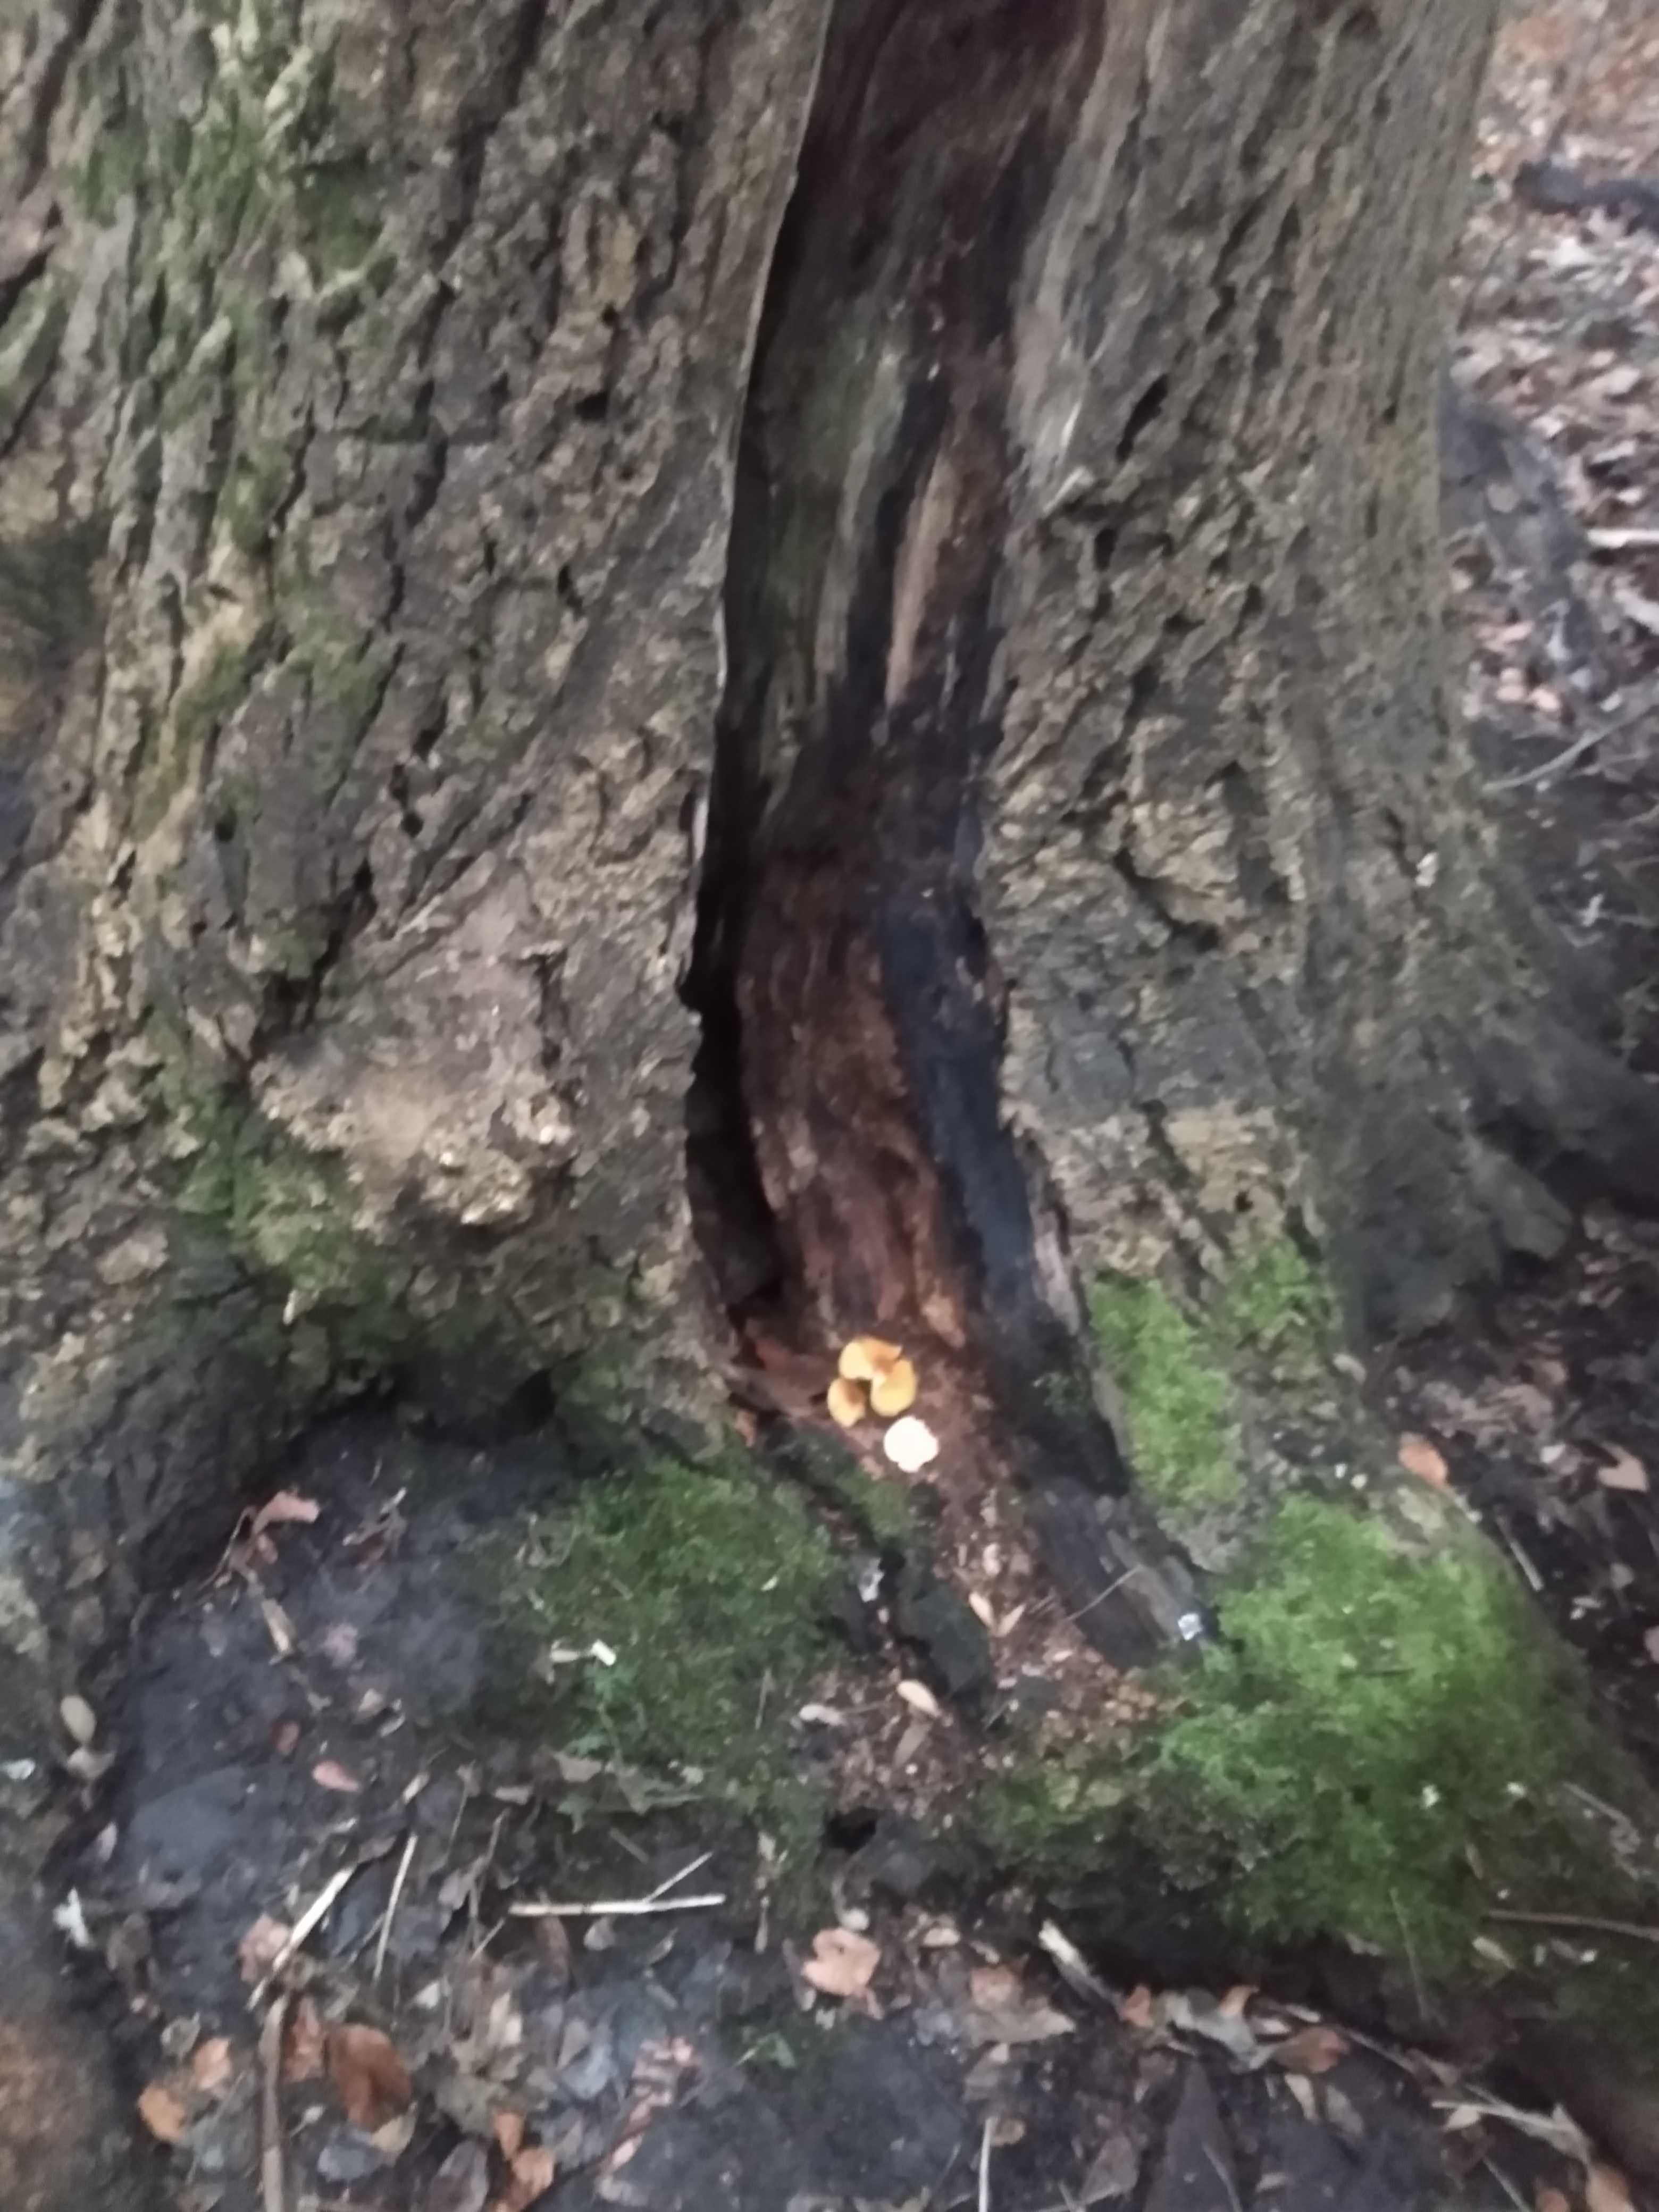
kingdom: Fungi
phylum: Basidiomycota
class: Agaricomycetes
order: Agaricales
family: Physalacriaceae
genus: Flammulina
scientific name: Flammulina velutipes
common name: gul fløjlsfod
